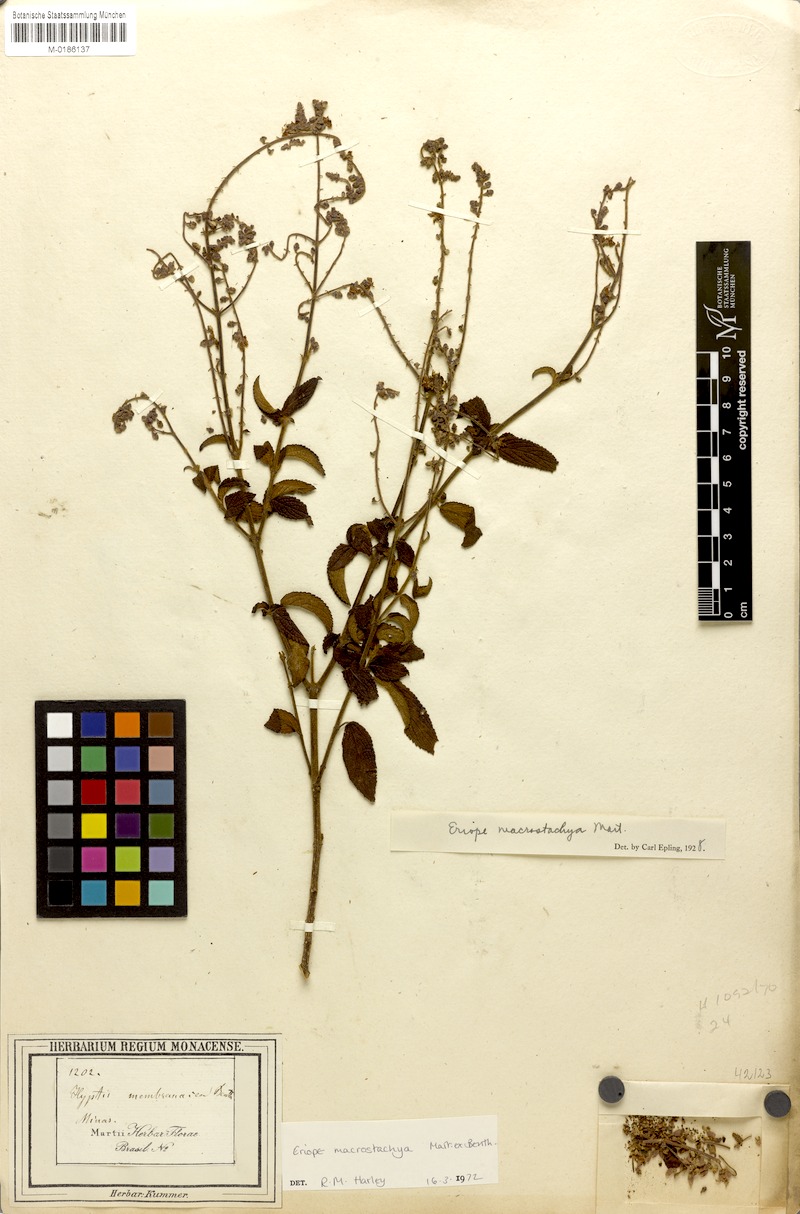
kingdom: Plantae
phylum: Tracheophyta
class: Magnoliopsida
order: Lamiales
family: Lamiaceae
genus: Eriope
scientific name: Eriope macrostachya
